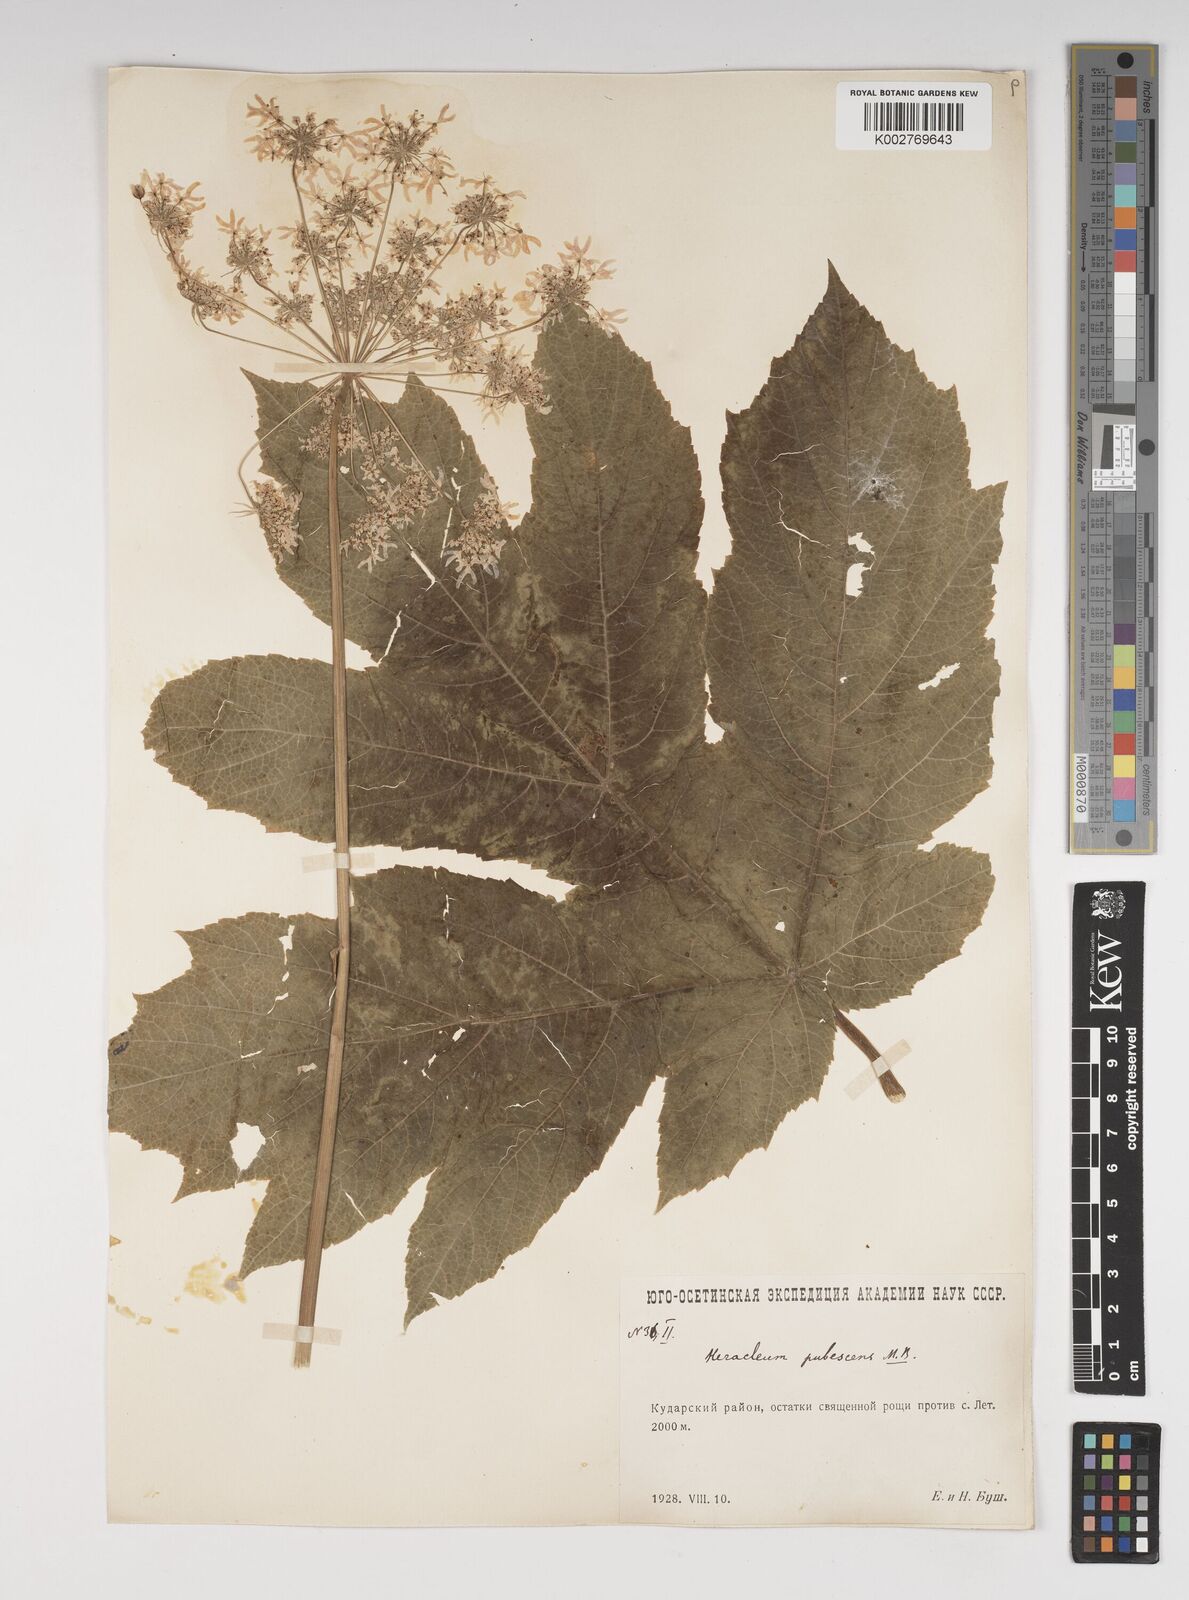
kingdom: Plantae
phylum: Tracheophyta
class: Magnoliopsida
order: Apiales
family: Apiaceae
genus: Heracleum
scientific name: Heracleum pubescens
